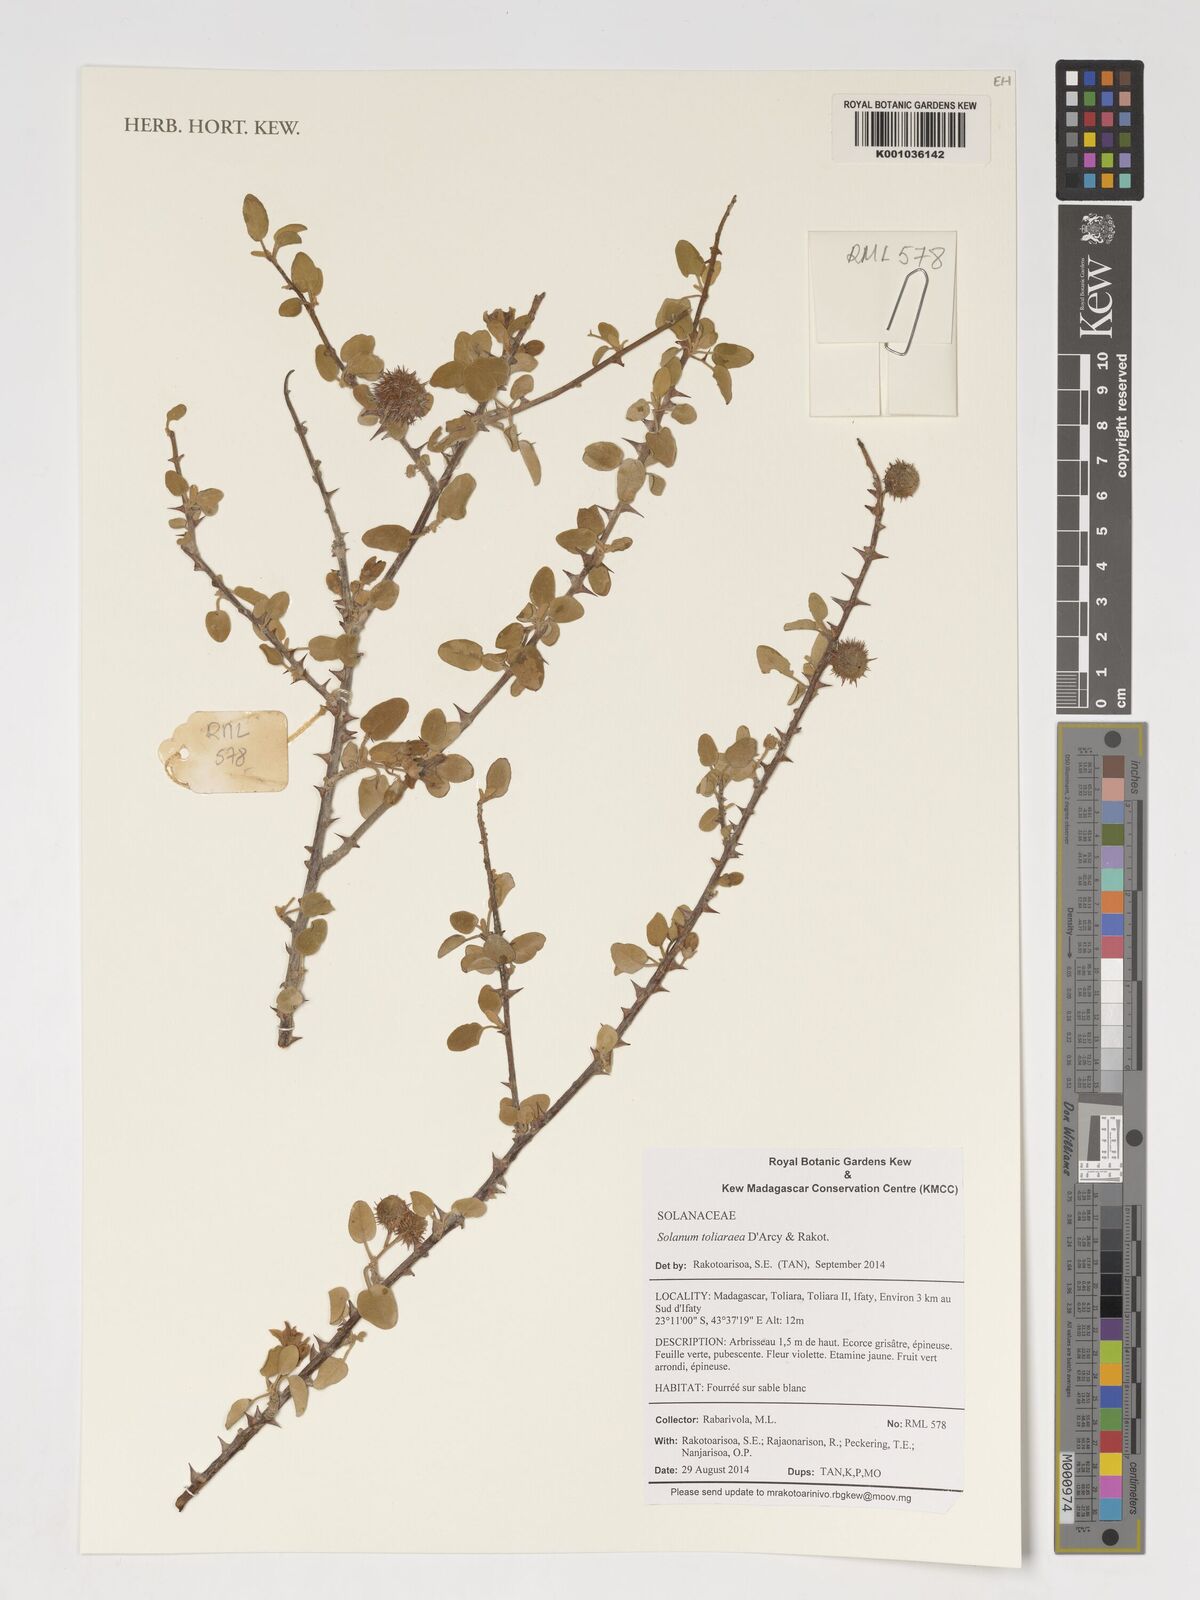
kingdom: Plantae
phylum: Tracheophyta
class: Magnoliopsida
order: Solanales
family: Solanaceae
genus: Solanum
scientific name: Solanum toliaraea
